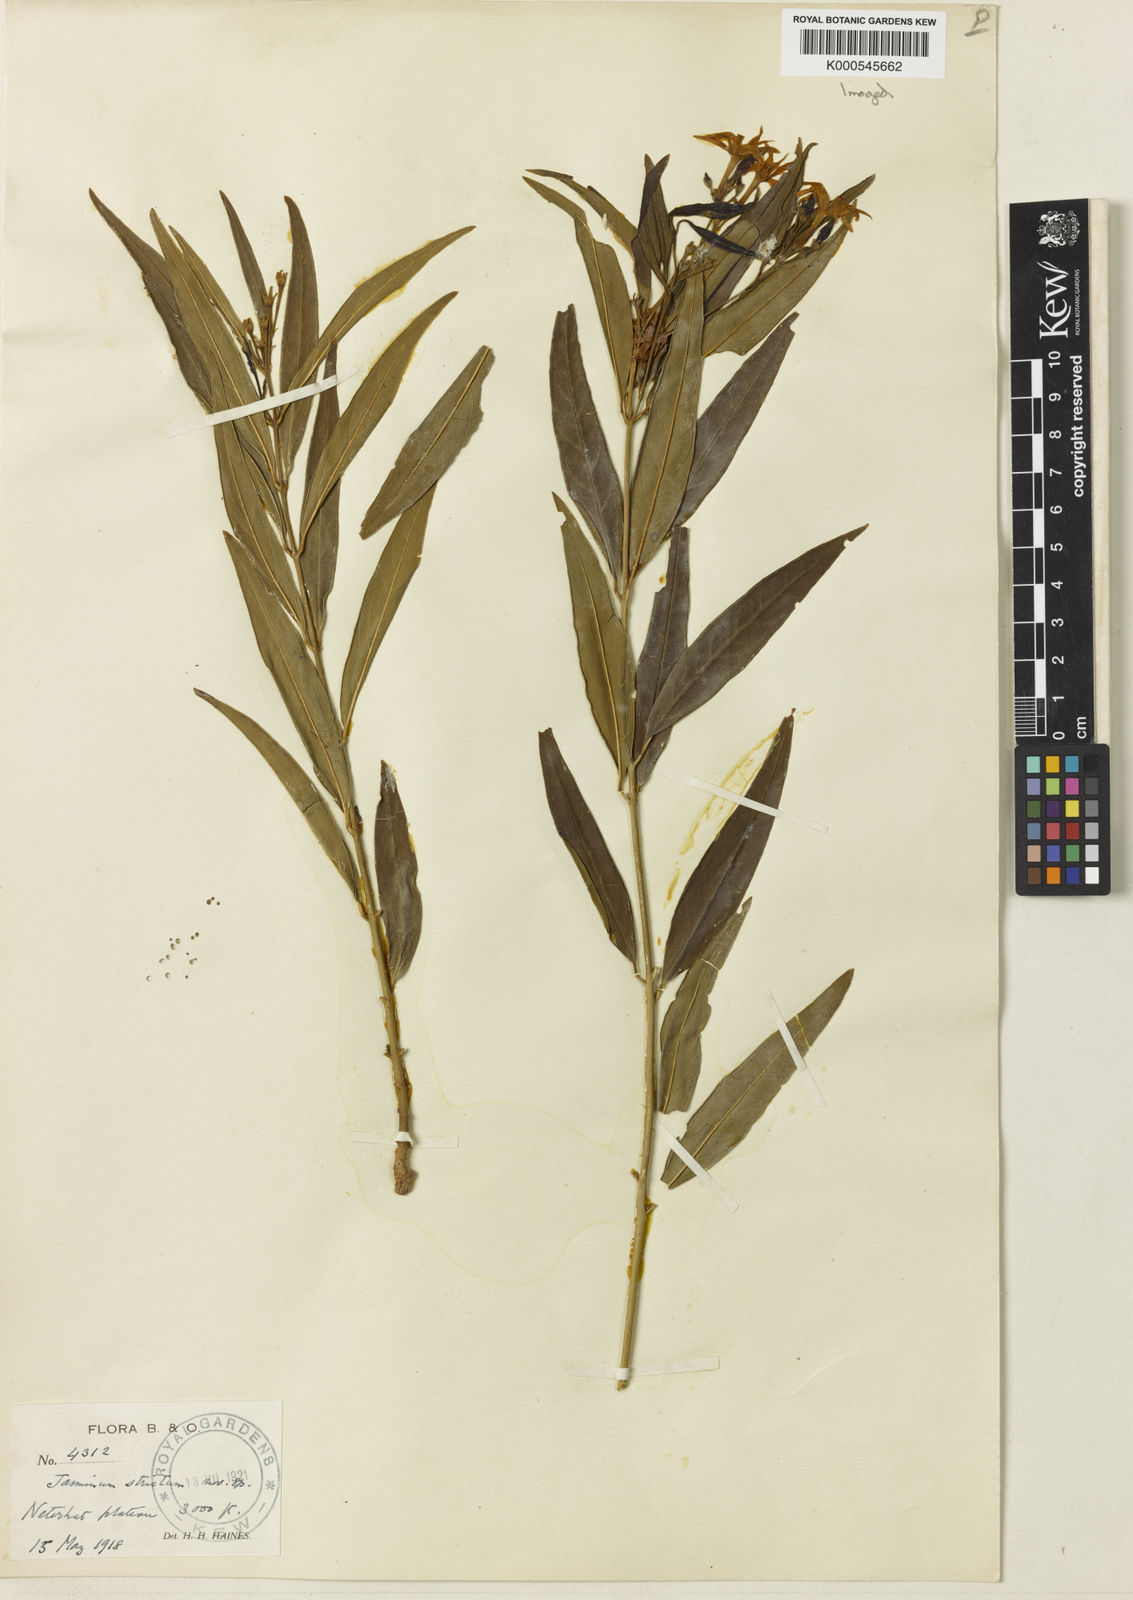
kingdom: Plantae
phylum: Tracheophyta
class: Magnoliopsida
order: Lamiales
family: Oleaceae
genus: Jasminum
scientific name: Jasminum
